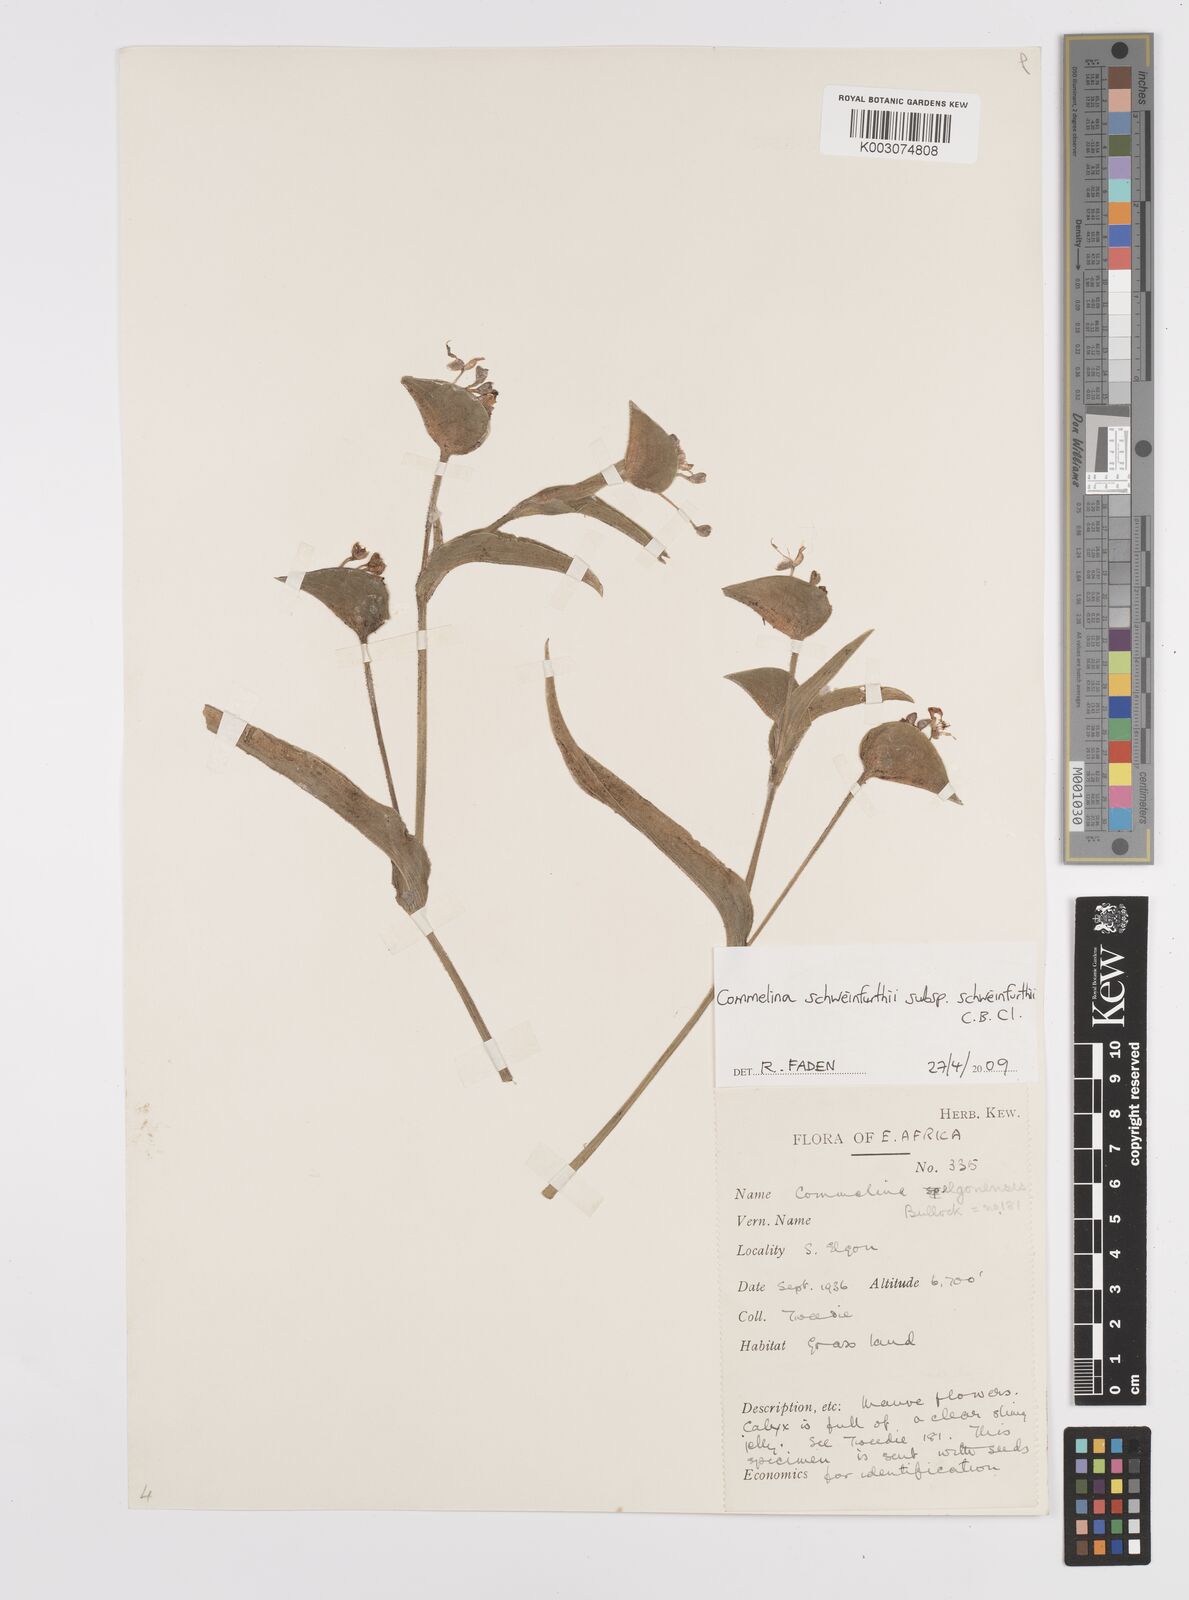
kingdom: Plantae
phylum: Tracheophyta
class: Liliopsida
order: Commelinales
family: Commelinaceae
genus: Commelina
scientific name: Commelina schweinfurthii
